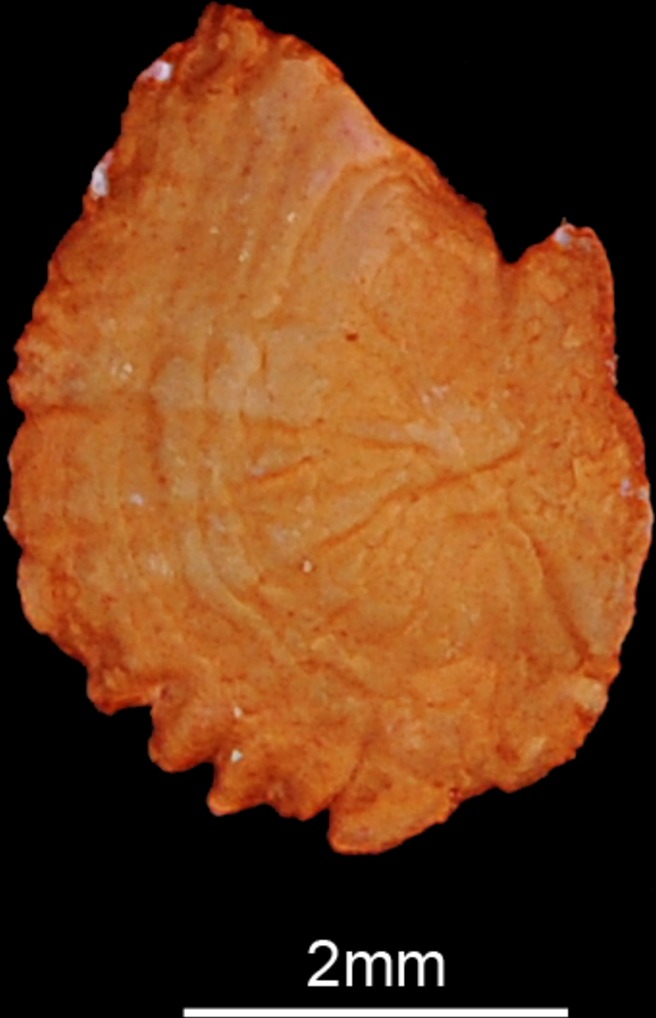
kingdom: Animalia
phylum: Chordata
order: Cypriniformes
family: Cyprinidae
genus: Luciobarbus
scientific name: Luciobarbus kersin
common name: Berzem
